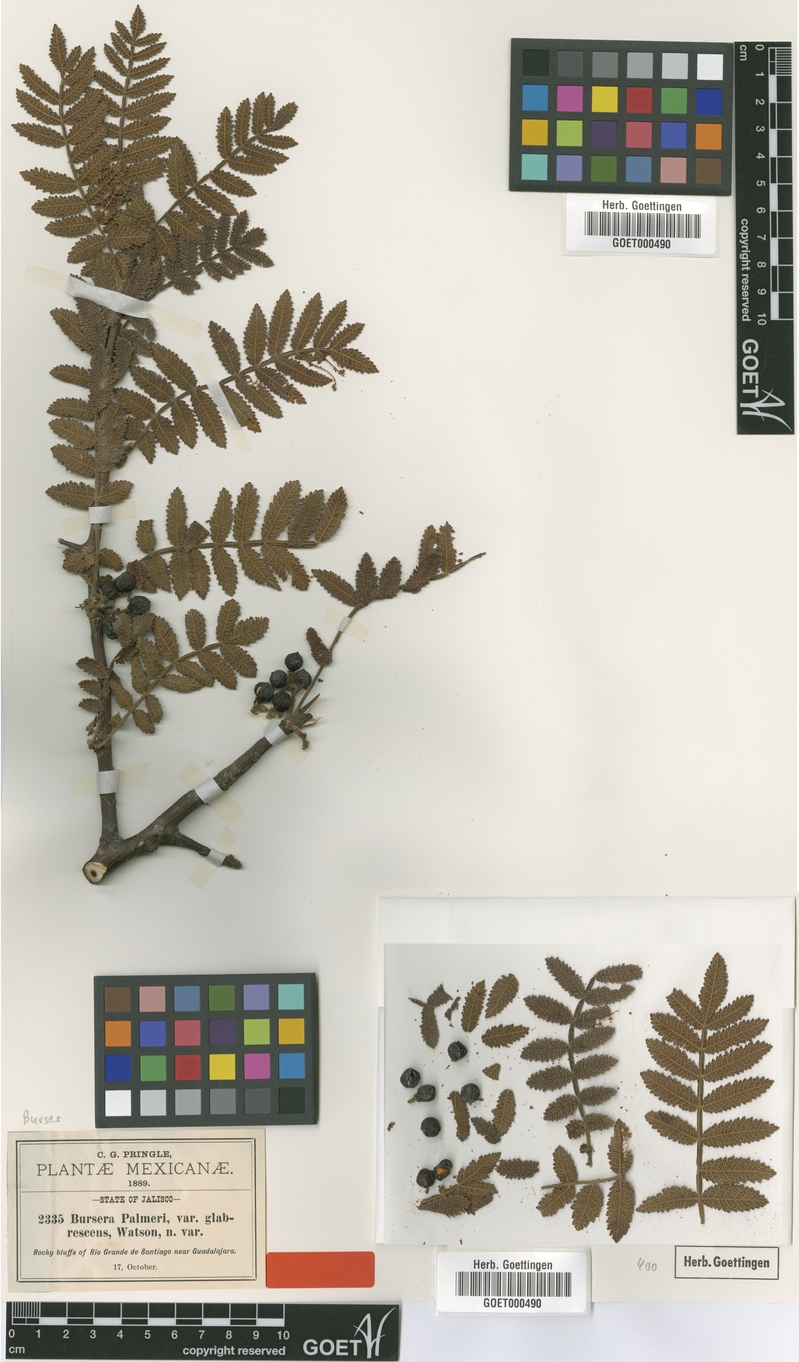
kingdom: Plantae
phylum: Tracheophyta
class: Magnoliopsida
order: Sapindales
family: Burseraceae
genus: Bursera
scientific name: Bursera copallifera
